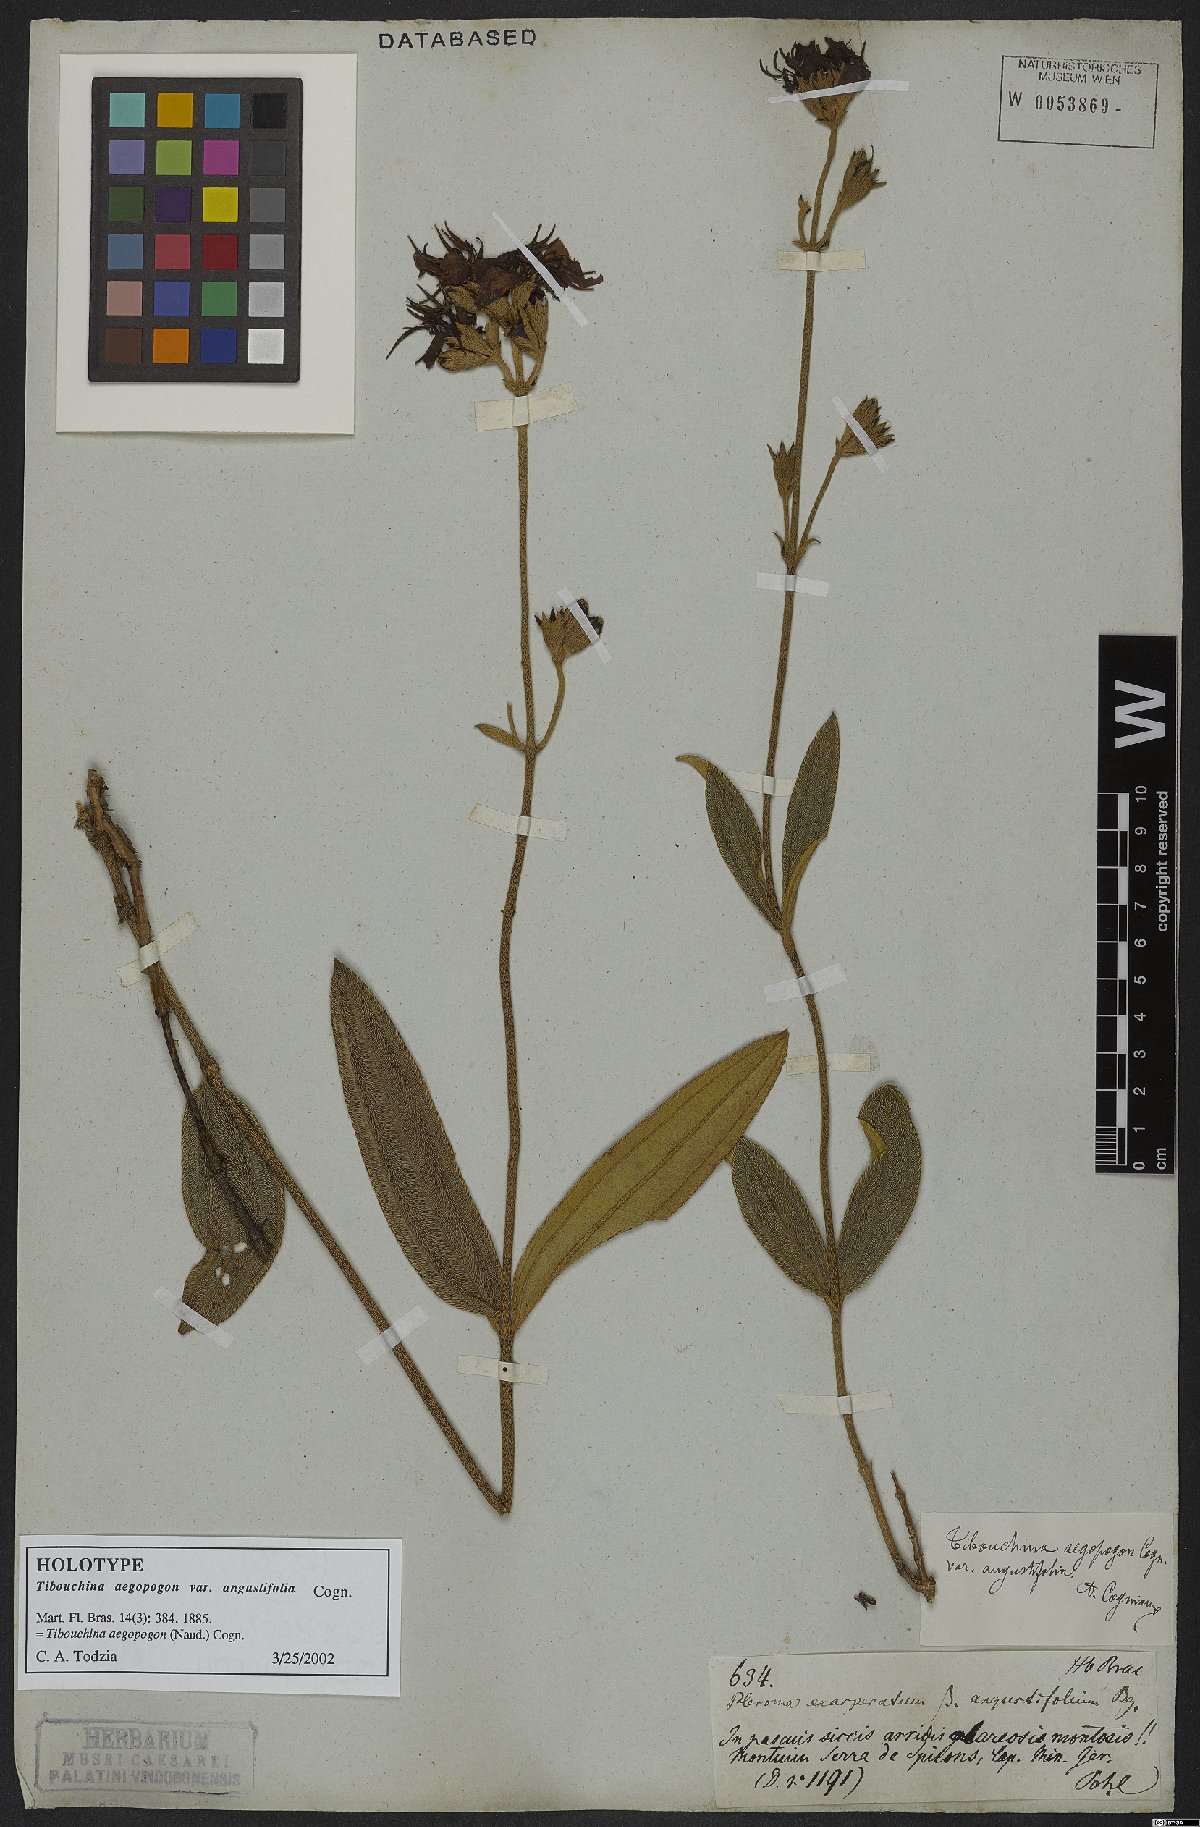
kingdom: Plantae
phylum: Tracheophyta
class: Magnoliopsida
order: Myrtales
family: Melastomataceae
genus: Pleroma
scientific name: Pleroma aegopogon
